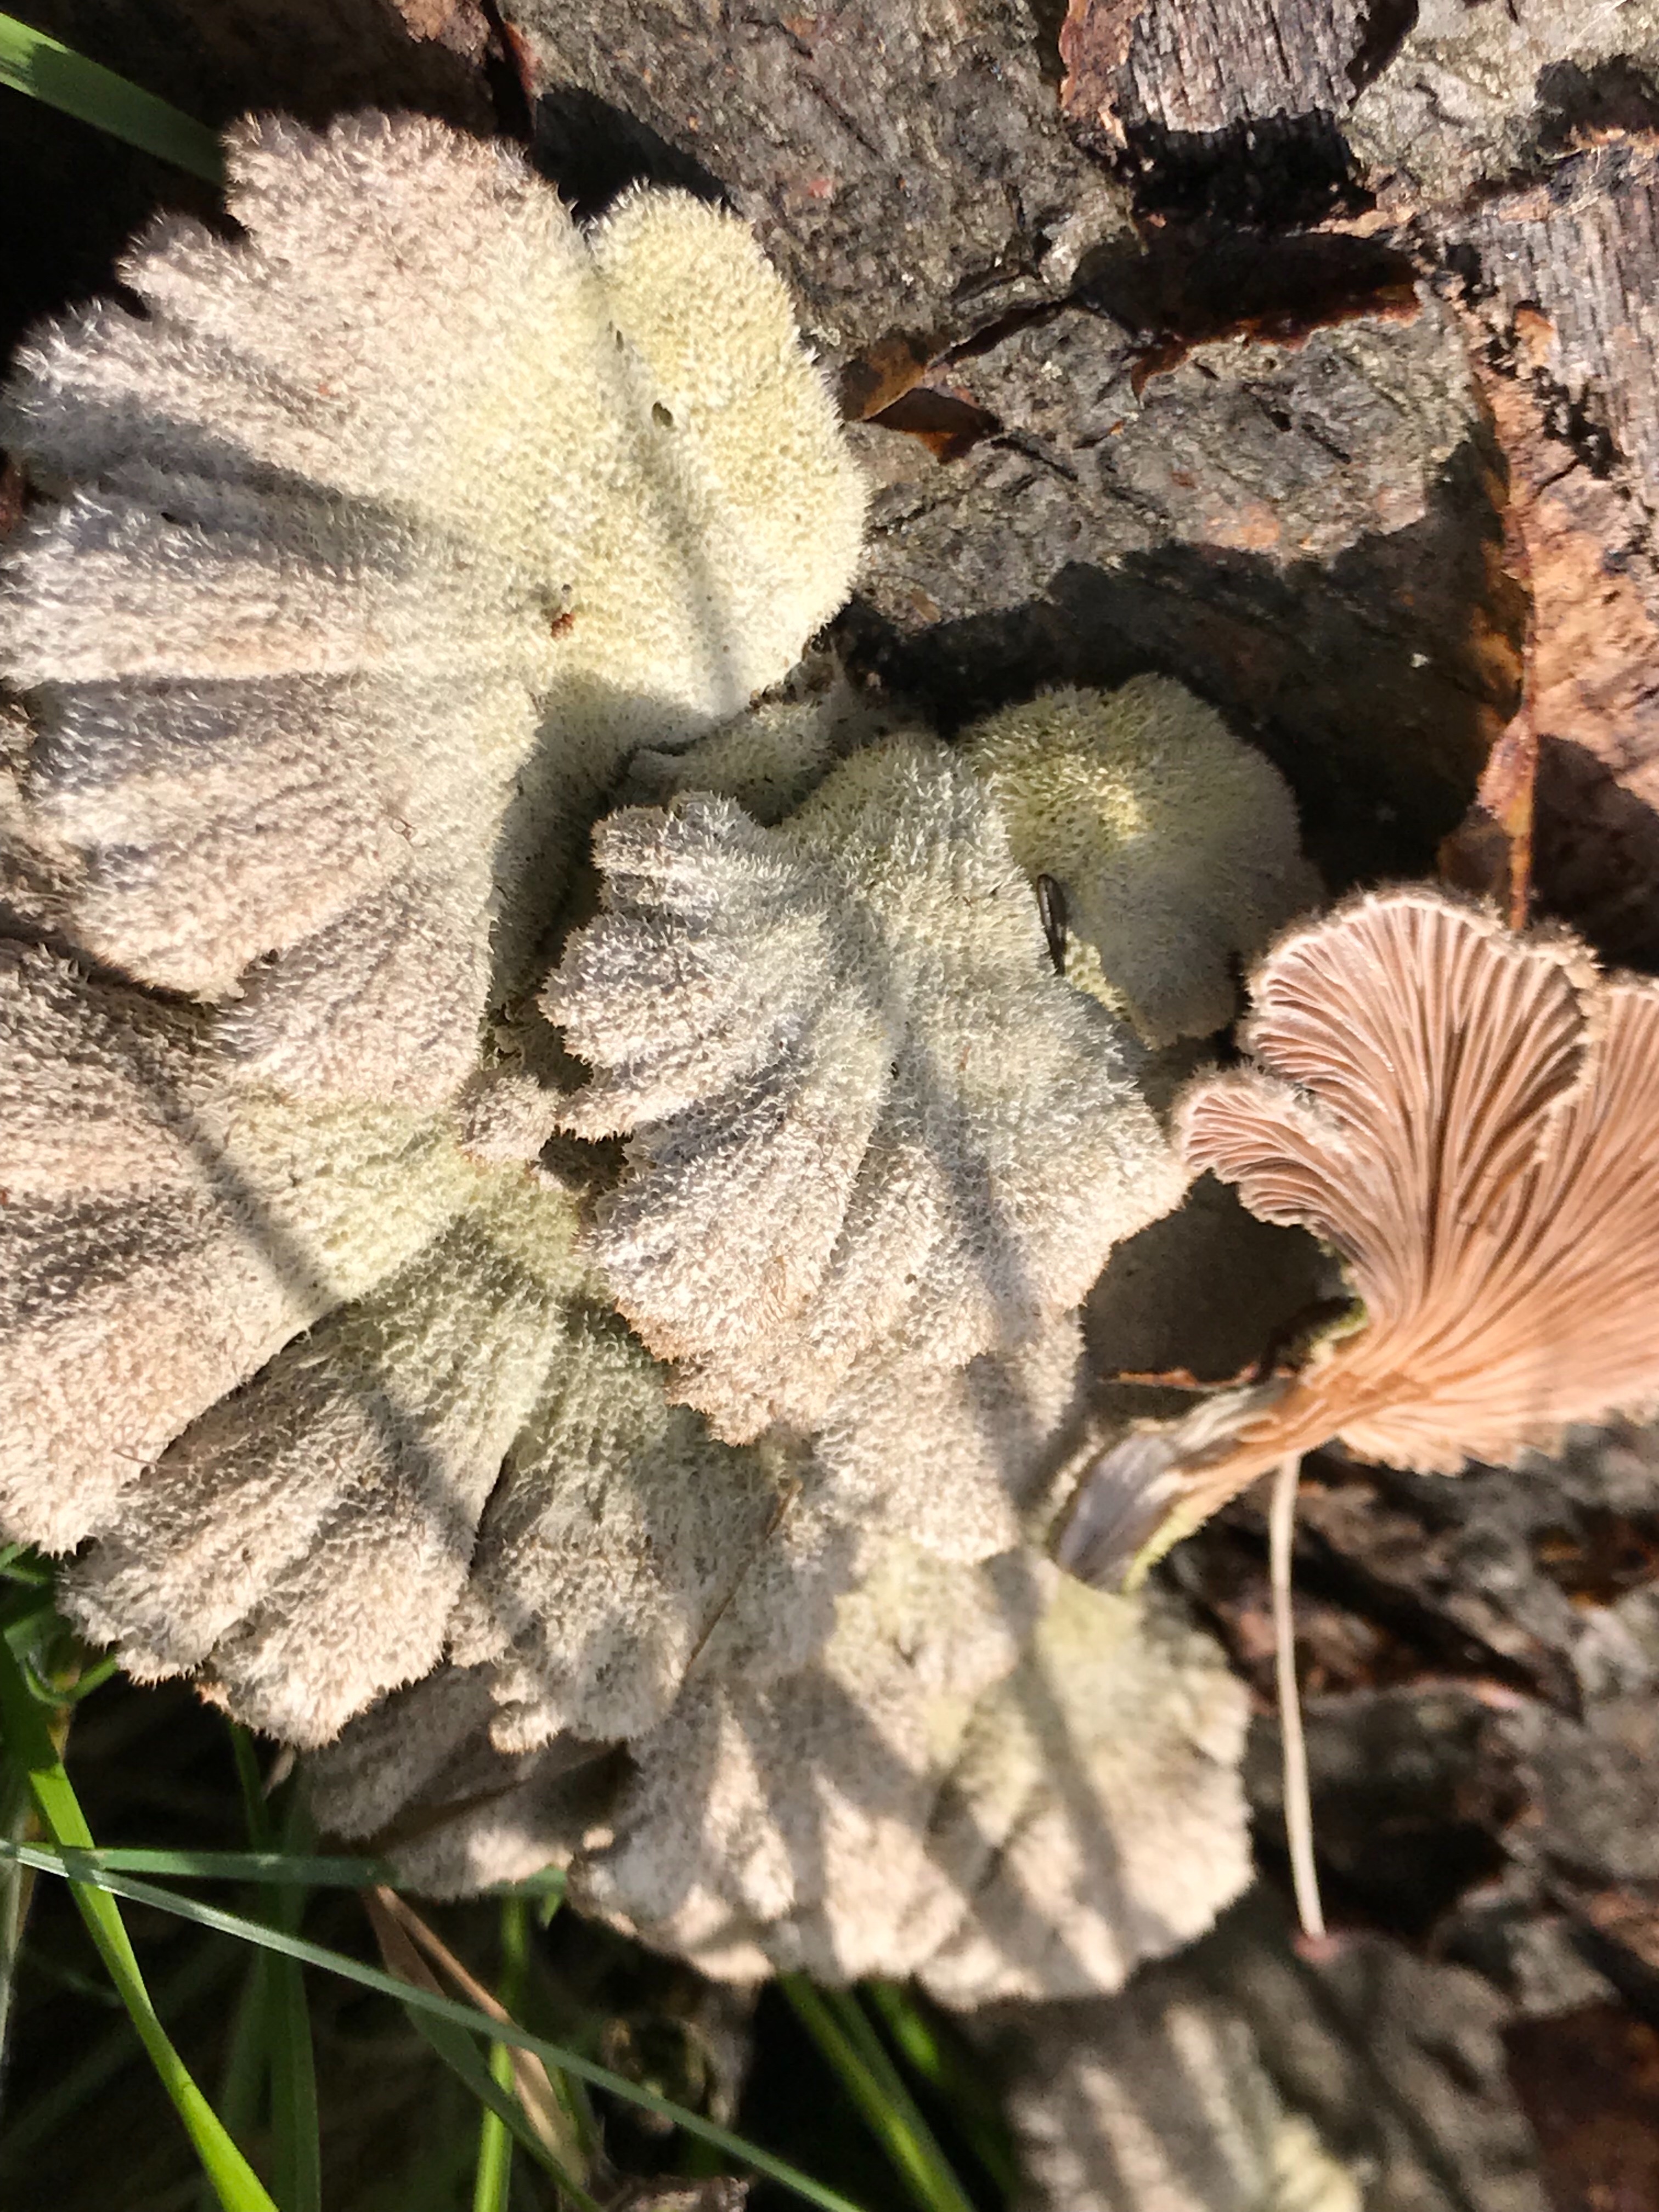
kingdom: Fungi
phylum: Basidiomycota
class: Agaricomycetes
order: Agaricales
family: Schizophyllaceae
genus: Schizophyllum
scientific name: Schizophyllum commune
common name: kløvblad
